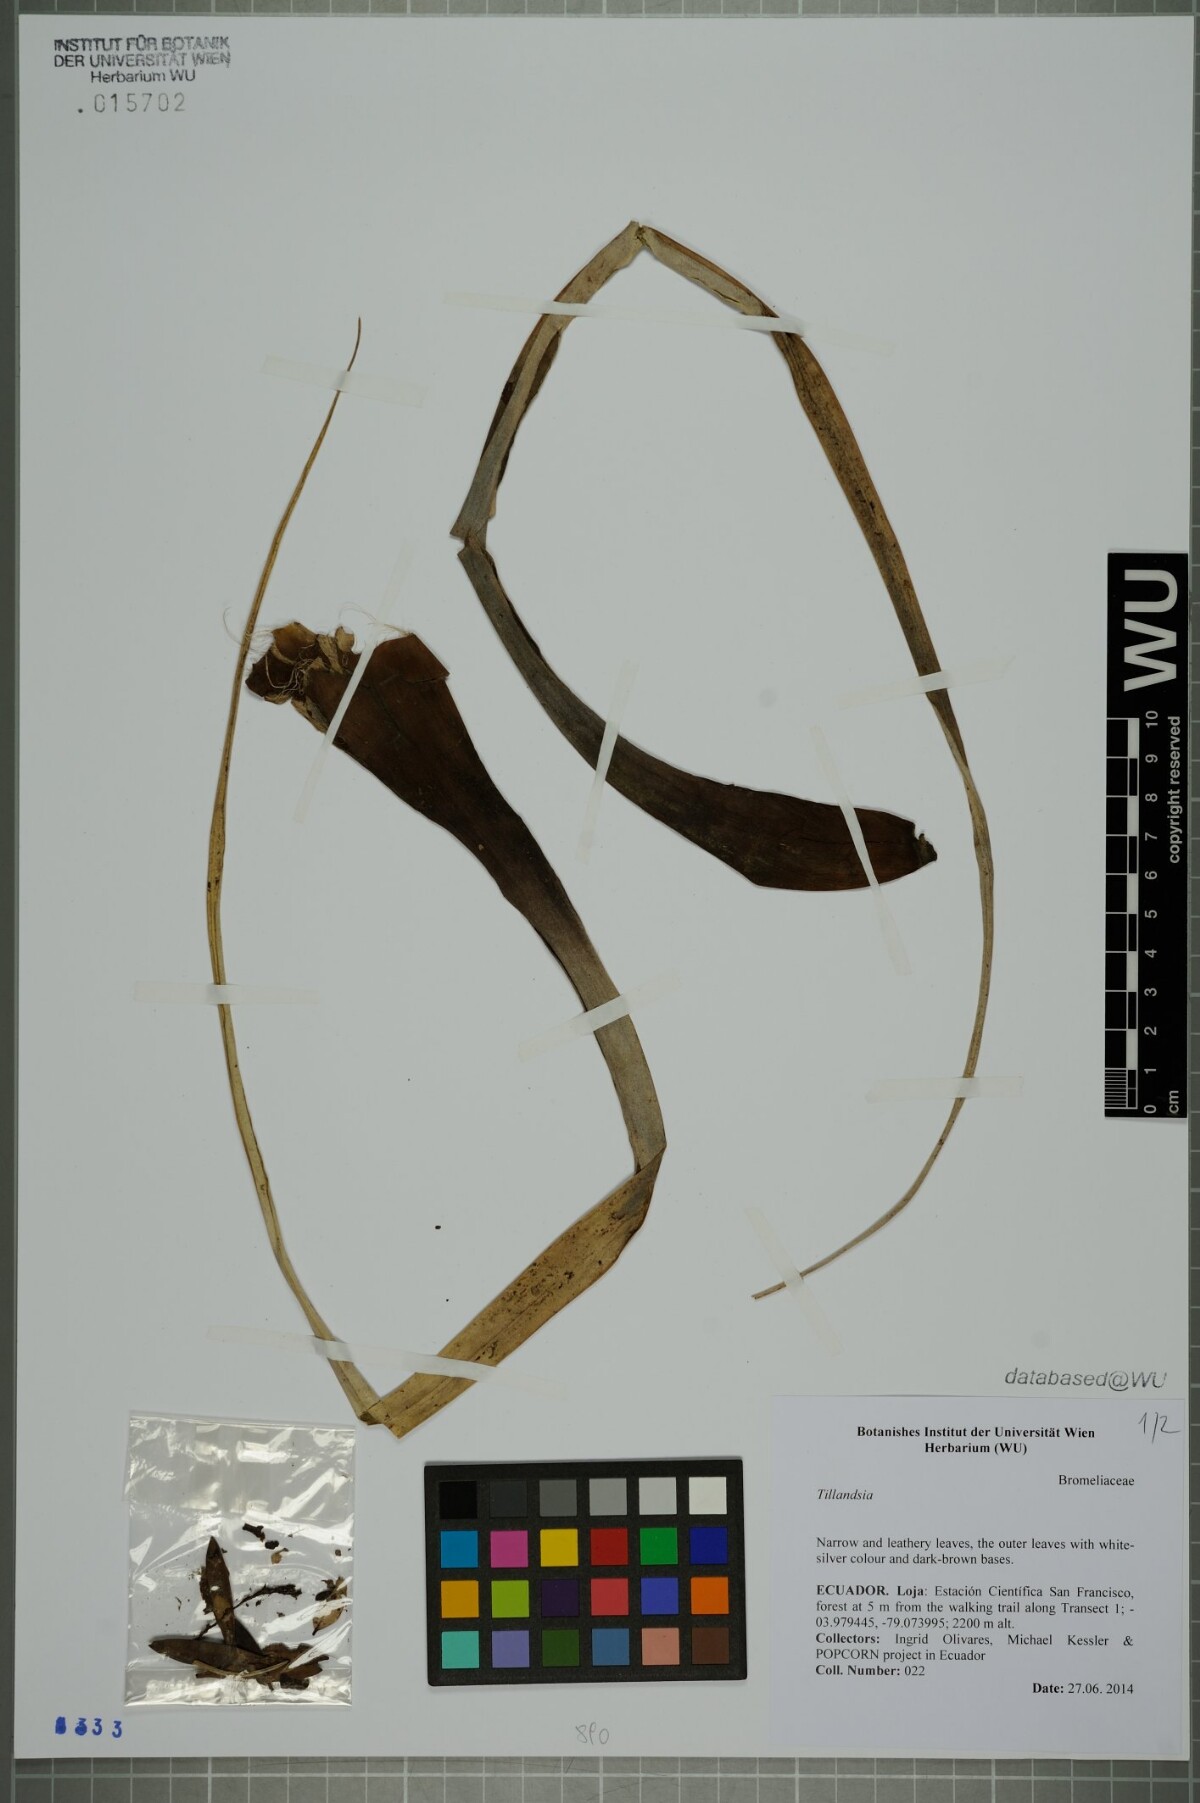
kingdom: Plantae
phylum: Tracheophyta
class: Liliopsida
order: Poales
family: Bromeliaceae
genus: Tillandsia
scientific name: Tillandsia
